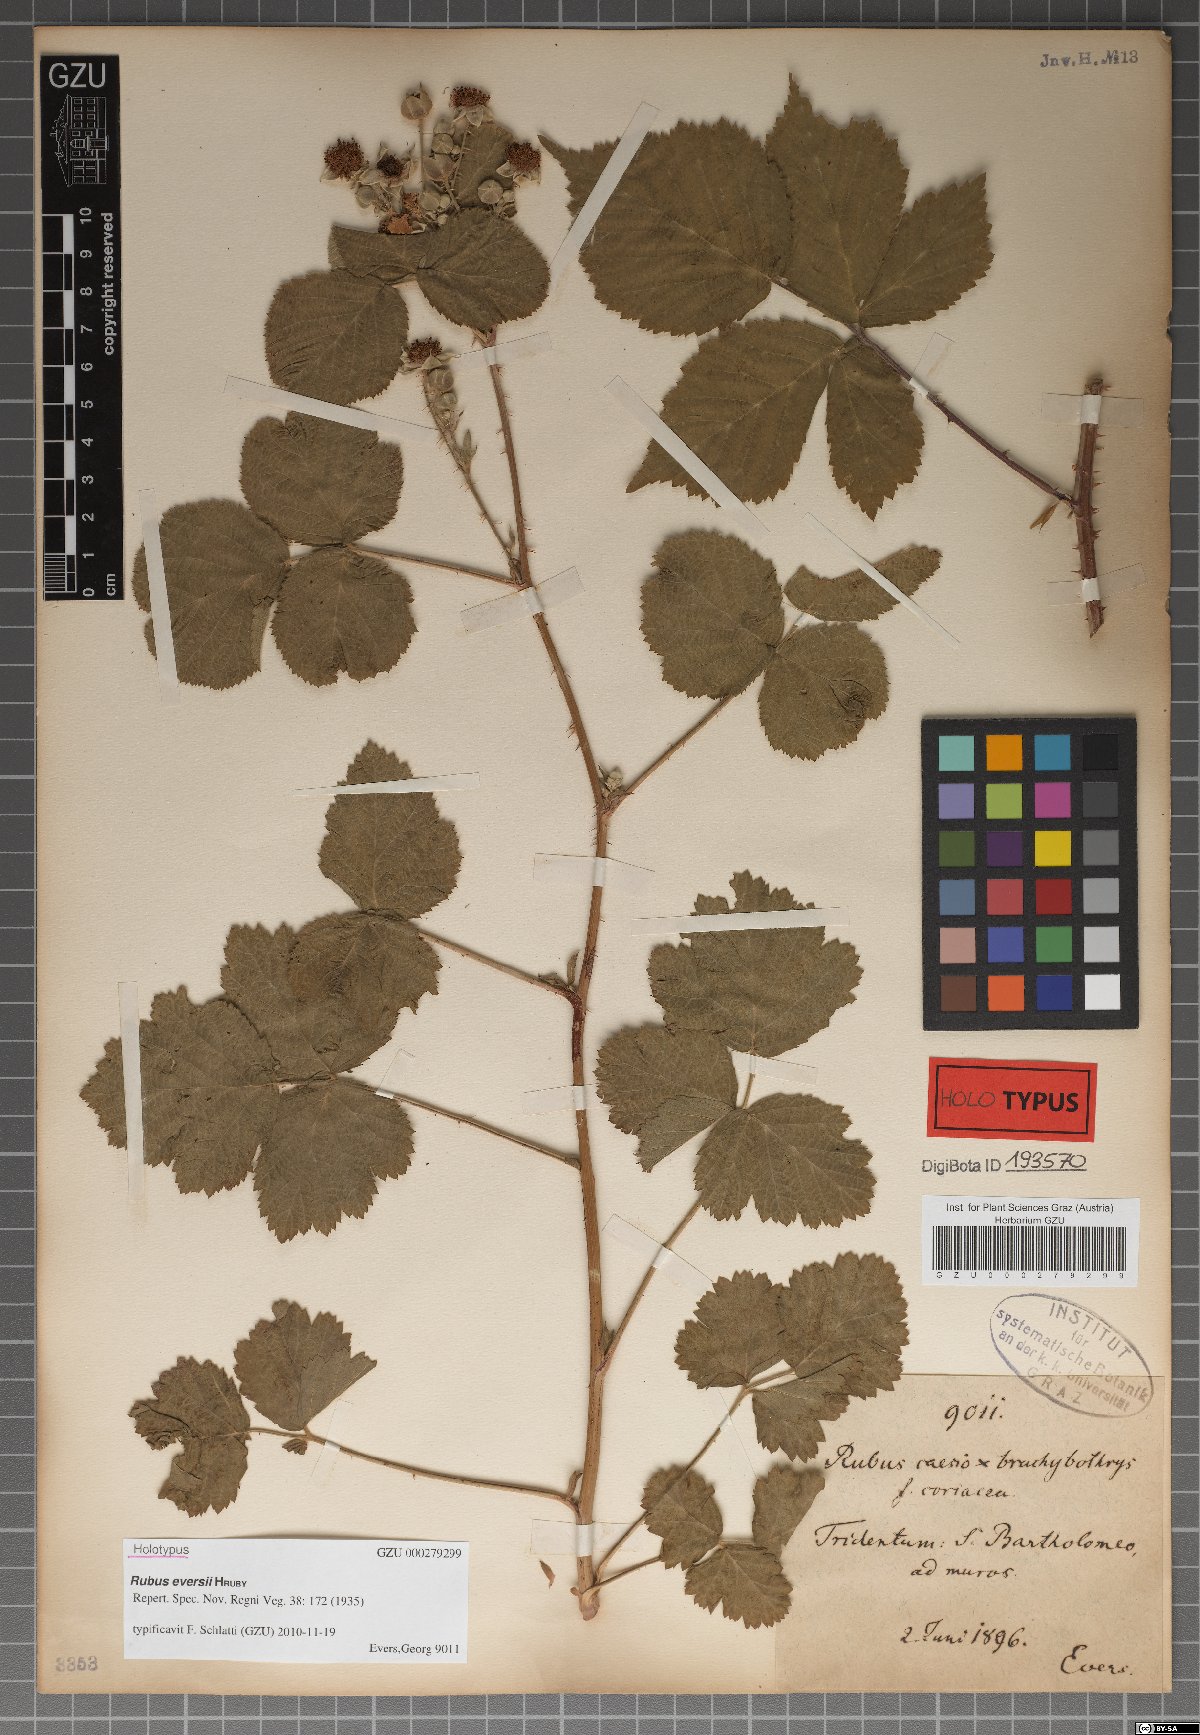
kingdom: Plantae
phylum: Tracheophyta
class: Magnoliopsida
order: Rosales
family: Rosaceae
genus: Rubus
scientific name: Rubus eversii
